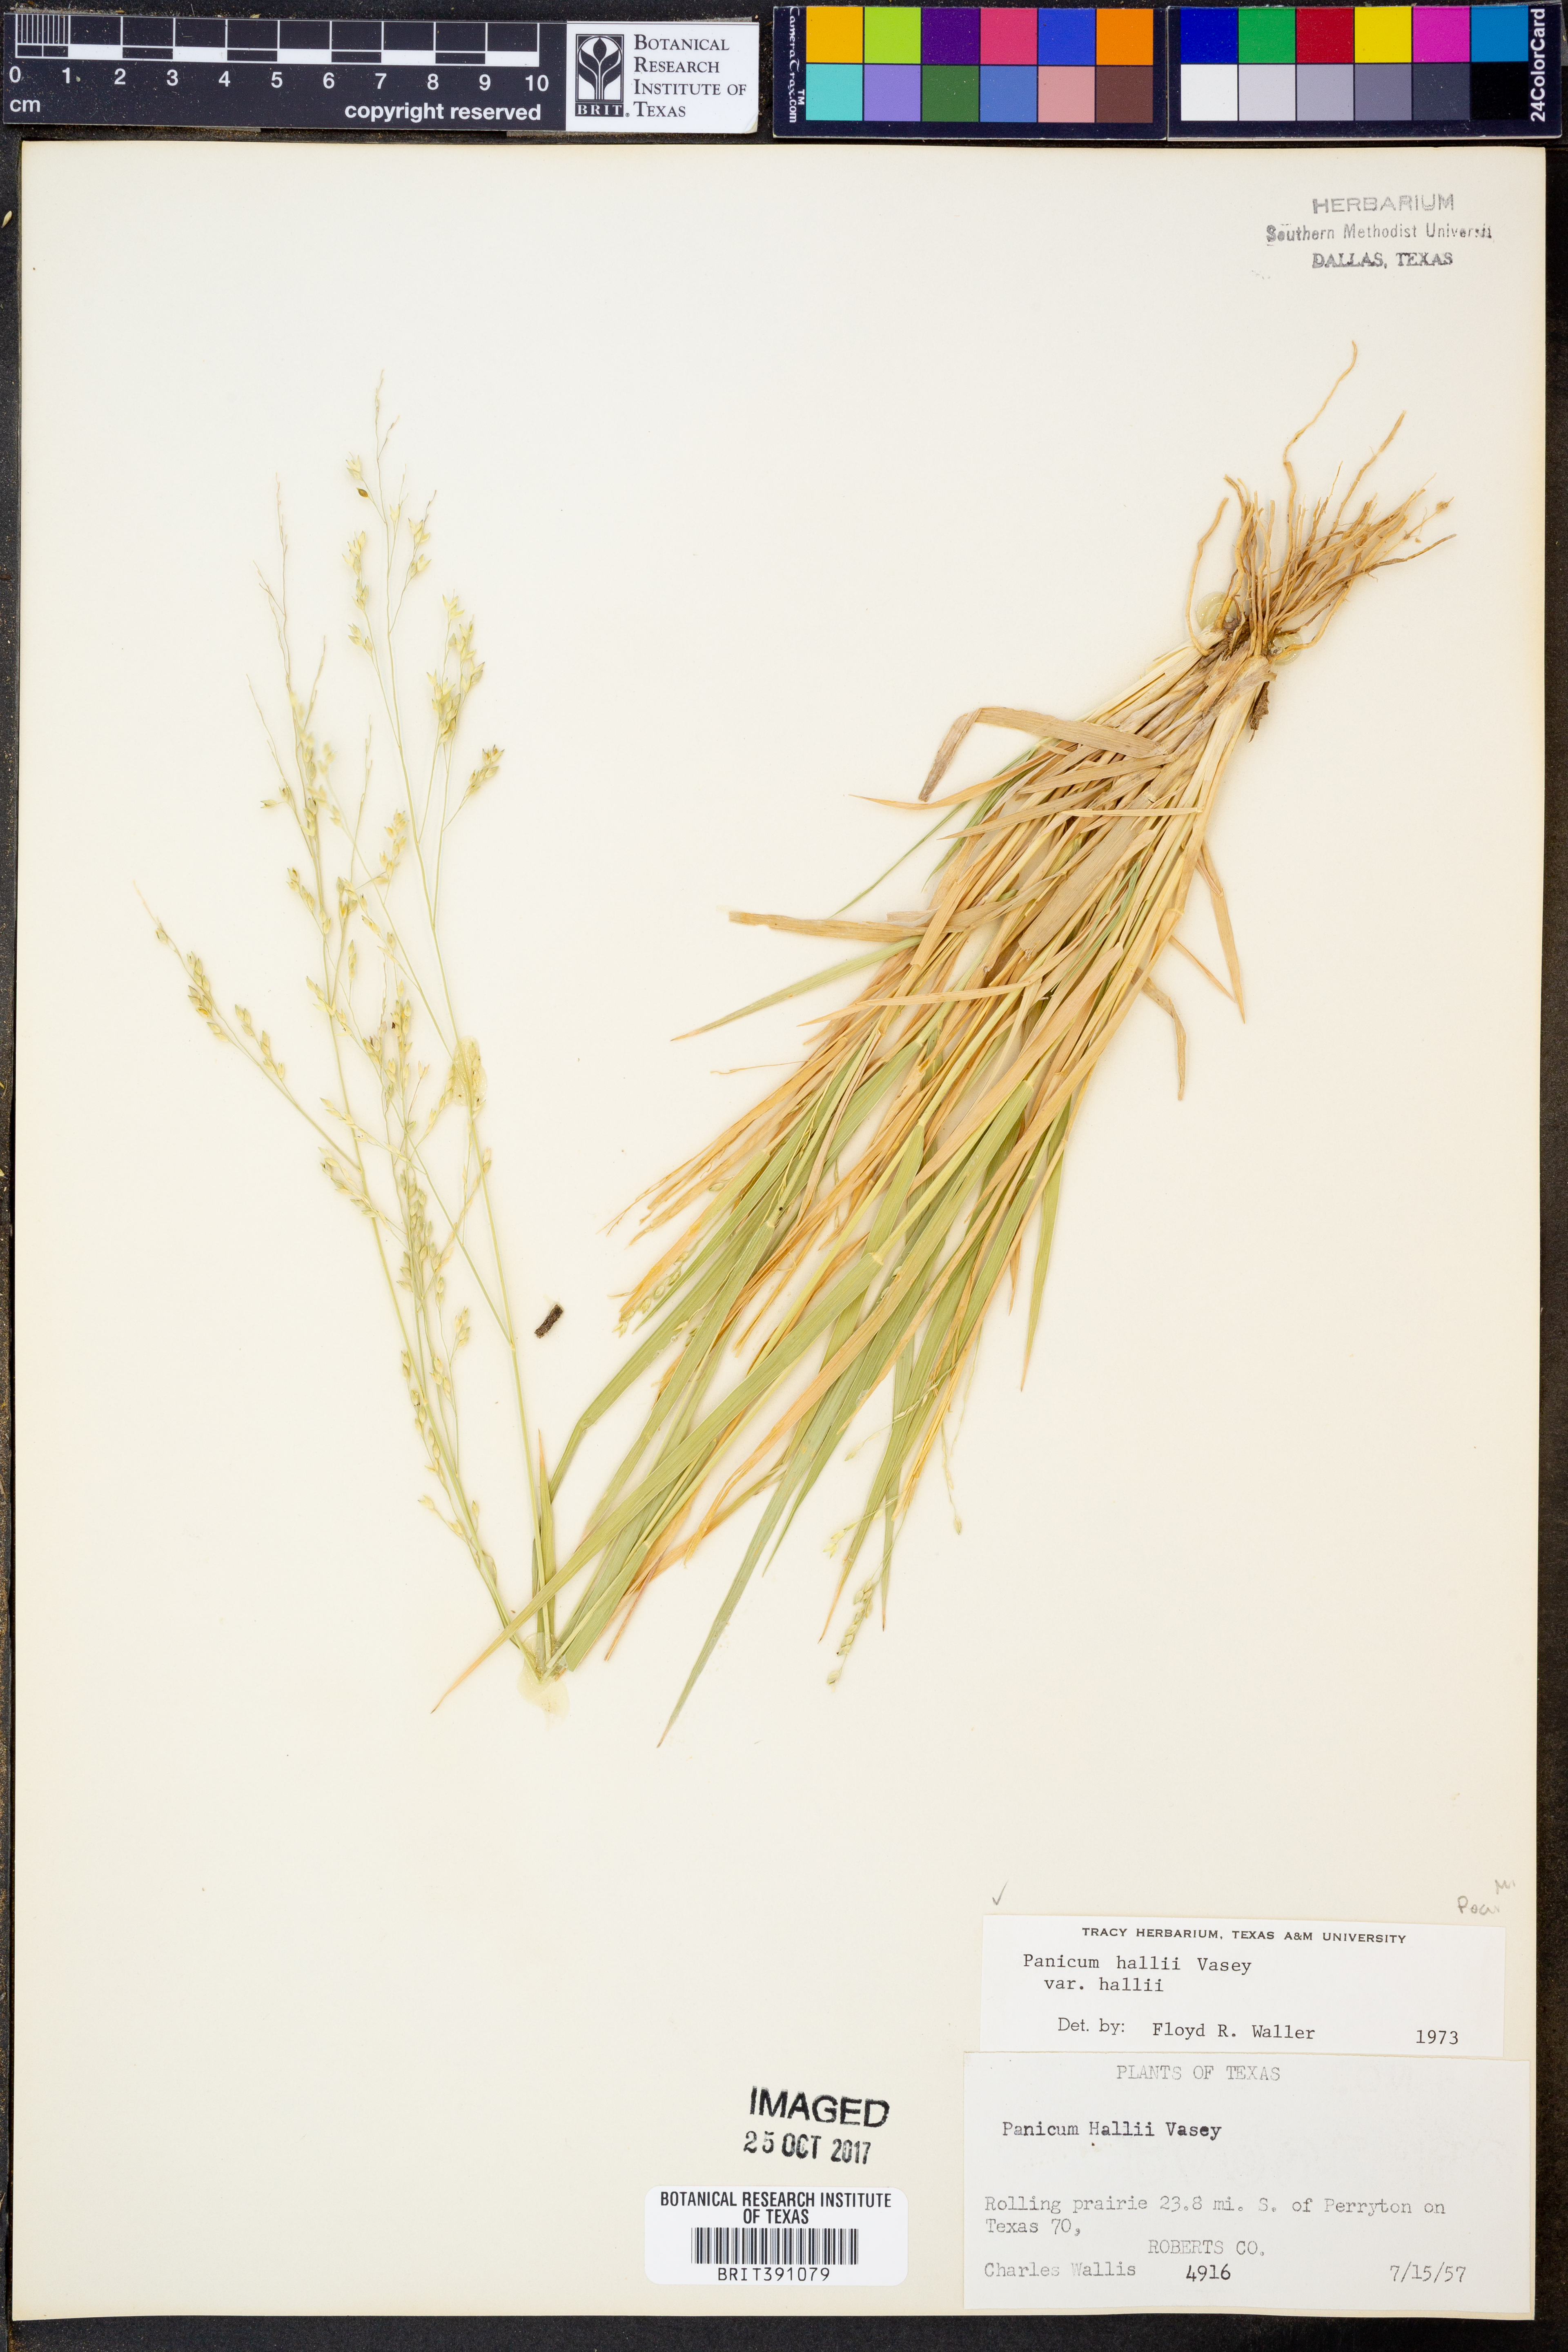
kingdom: Plantae
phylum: Tracheophyta
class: Liliopsida
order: Poales
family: Poaceae
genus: Panicum
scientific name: Panicum hallii
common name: Hall's witchgrass
